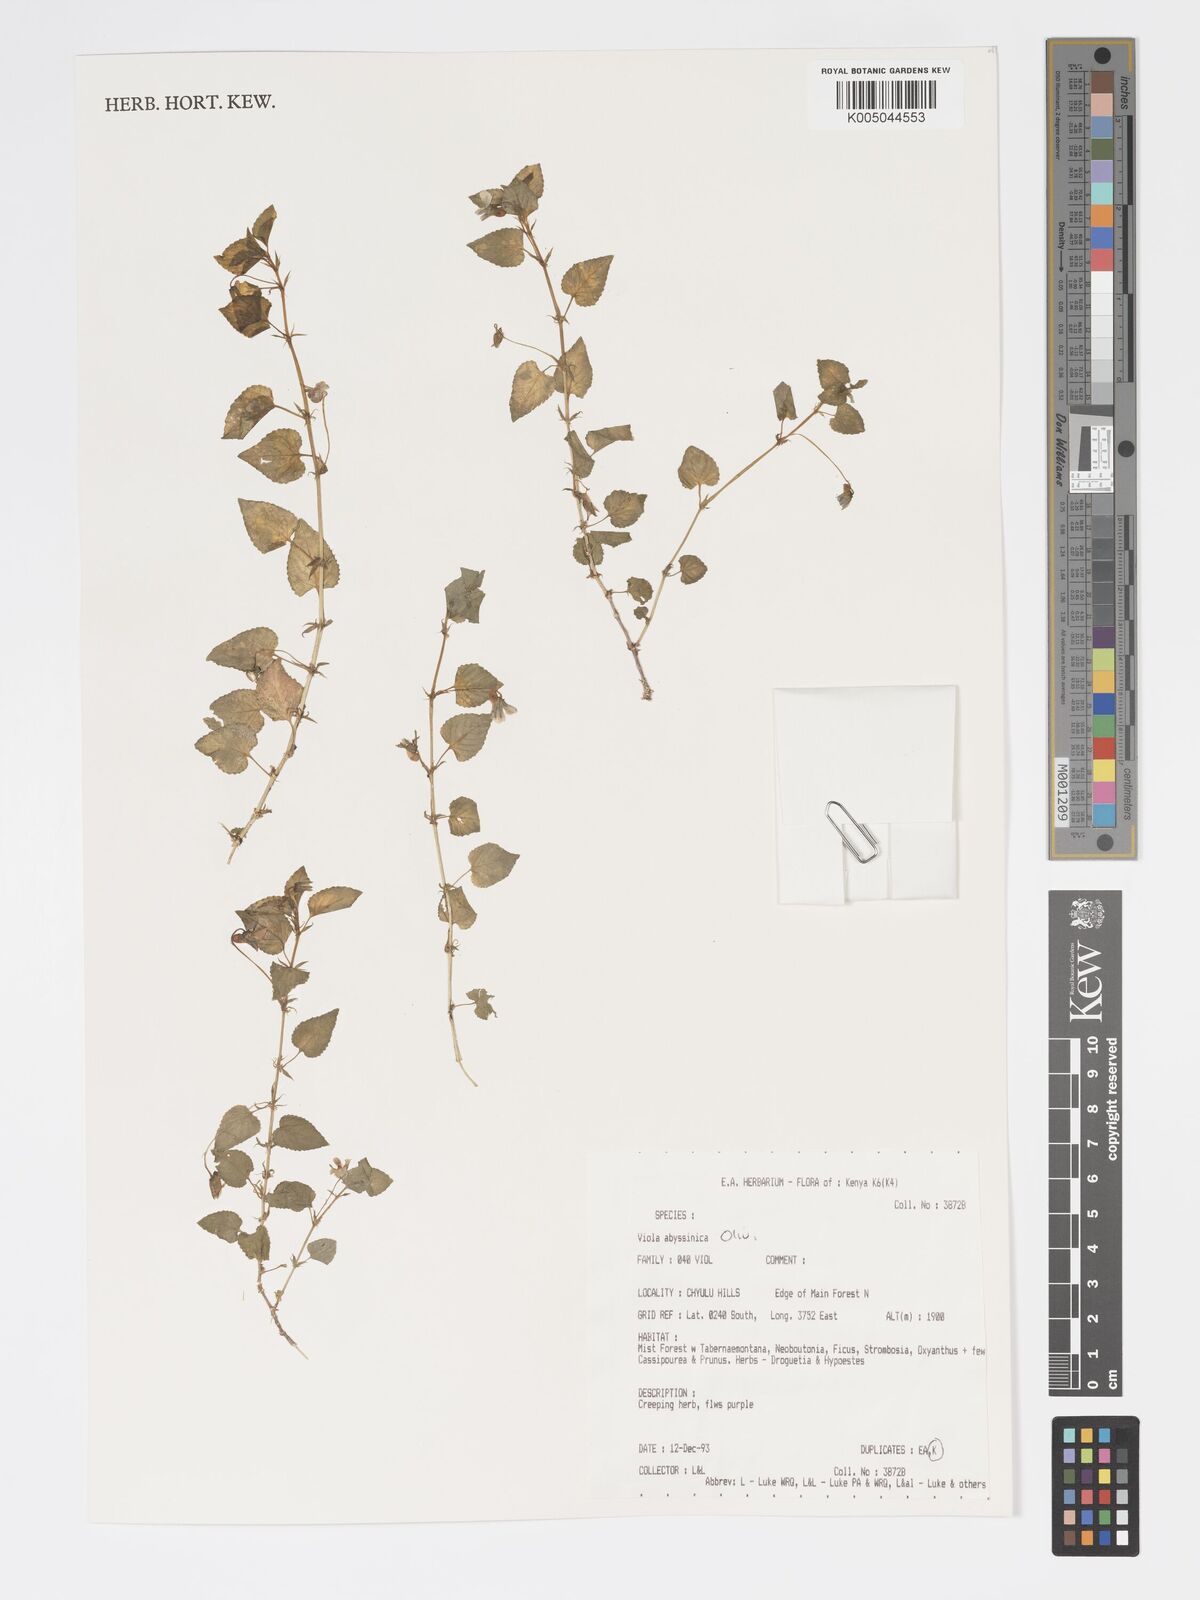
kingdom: Plantae
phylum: Tracheophyta
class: Magnoliopsida
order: Malpighiales
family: Violaceae
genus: Viola
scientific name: Viola abyssinica
